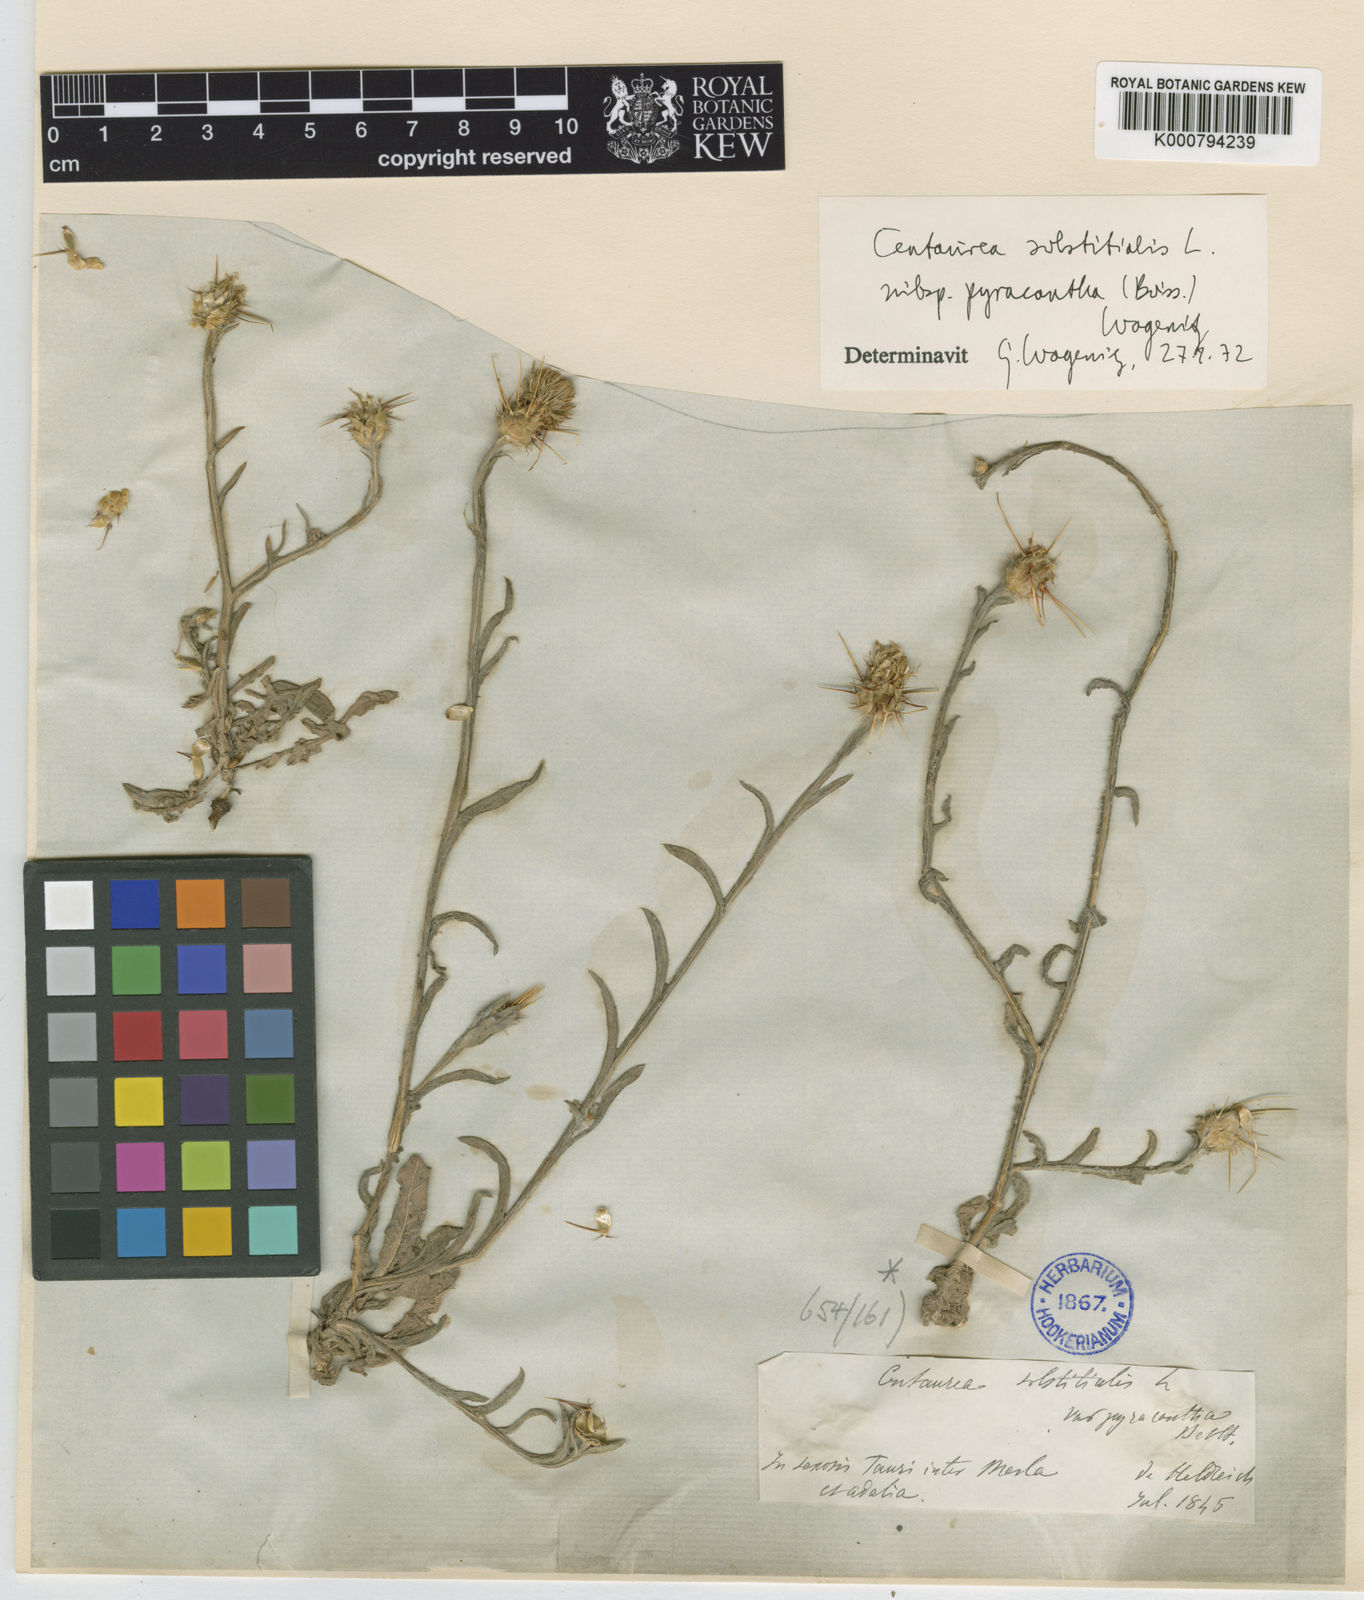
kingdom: Plantae
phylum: Tracheophyta
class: Magnoliopsida
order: Asterales
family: Asteraceae
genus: Centaurea
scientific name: Centaurea solstitialis
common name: Yellow star-thistle
